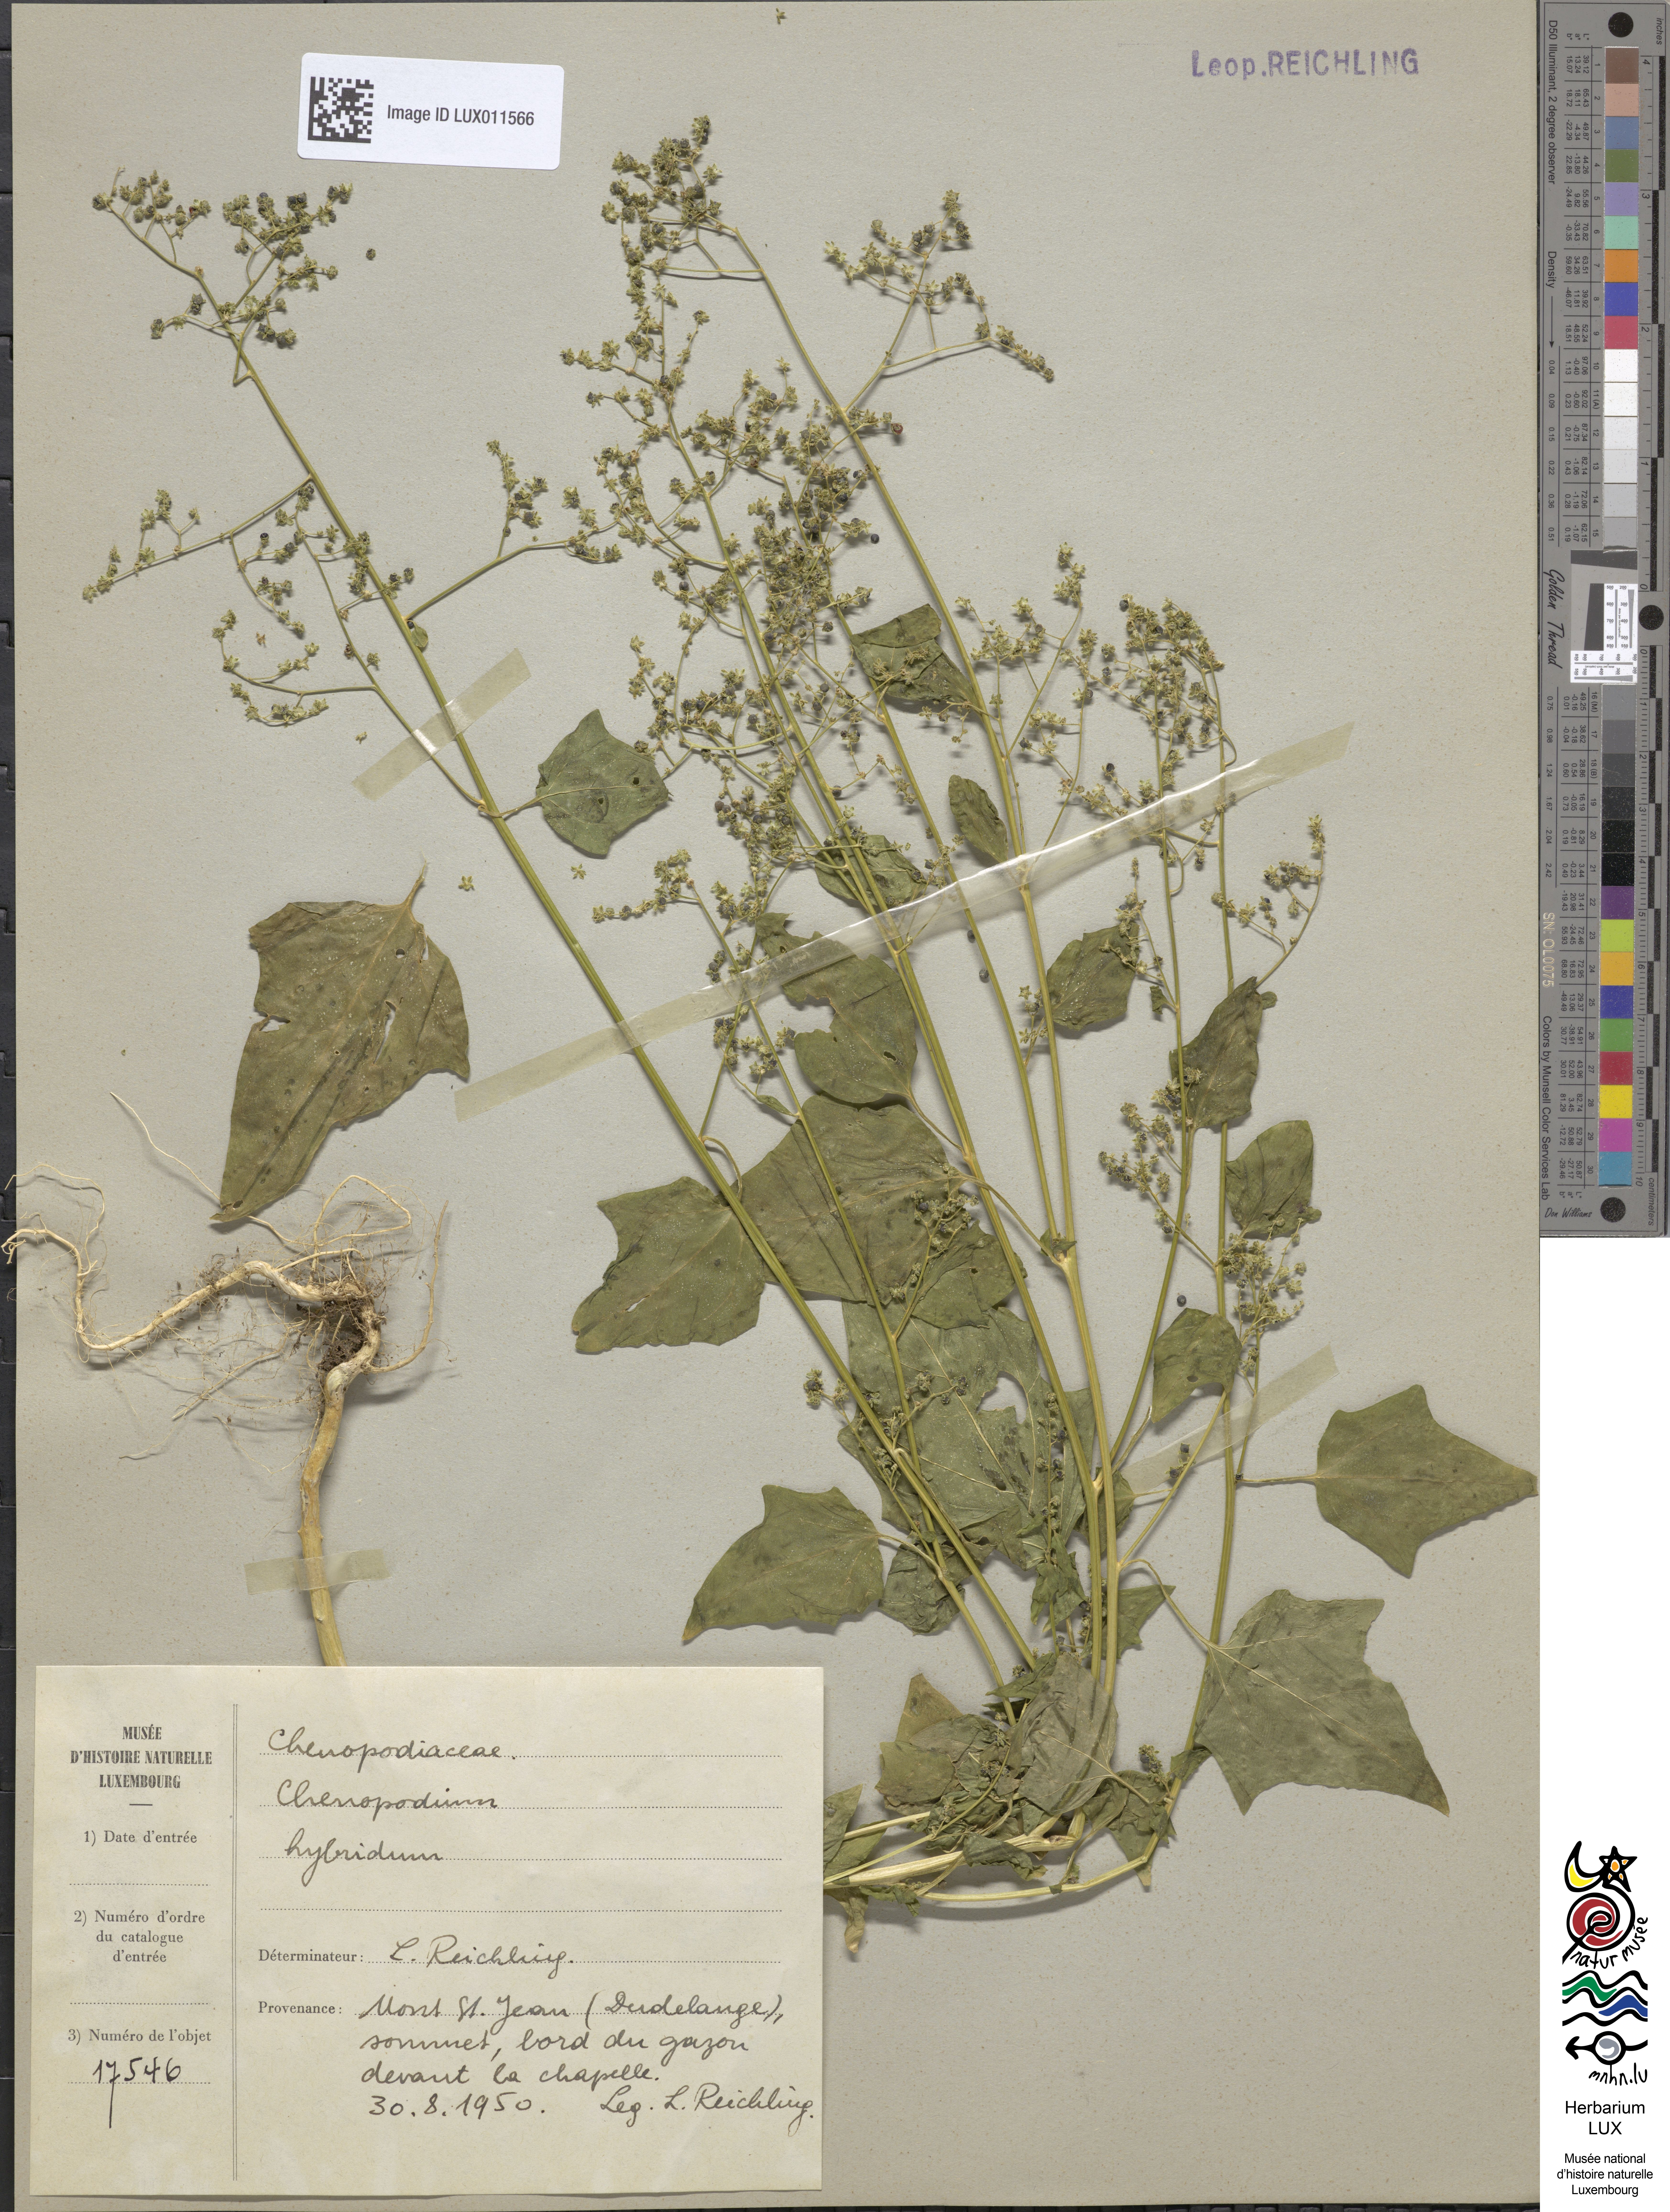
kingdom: Plantae
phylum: Tracheophyta
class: Magnoliopsida
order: Caryophyllales
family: Amaranthaceae
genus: Chenopodiastrum
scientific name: Chenopodiastrum hybridum
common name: Mapleleaf goosefoot
